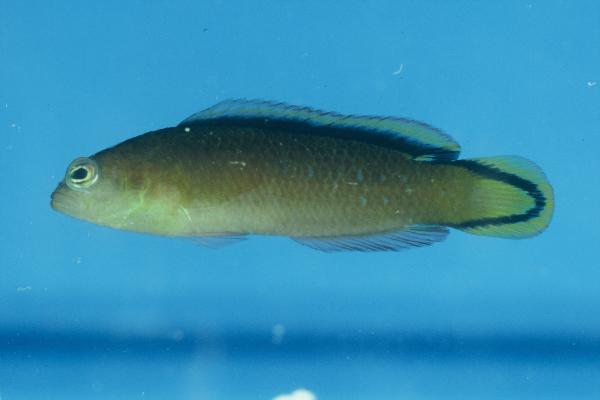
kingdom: Animalia
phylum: Chordata
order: Perciformes
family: Pseudochromidae
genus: Pseudochromis
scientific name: Pseudochromis tapeinosoma
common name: Horseshoe-tailed dottyback
